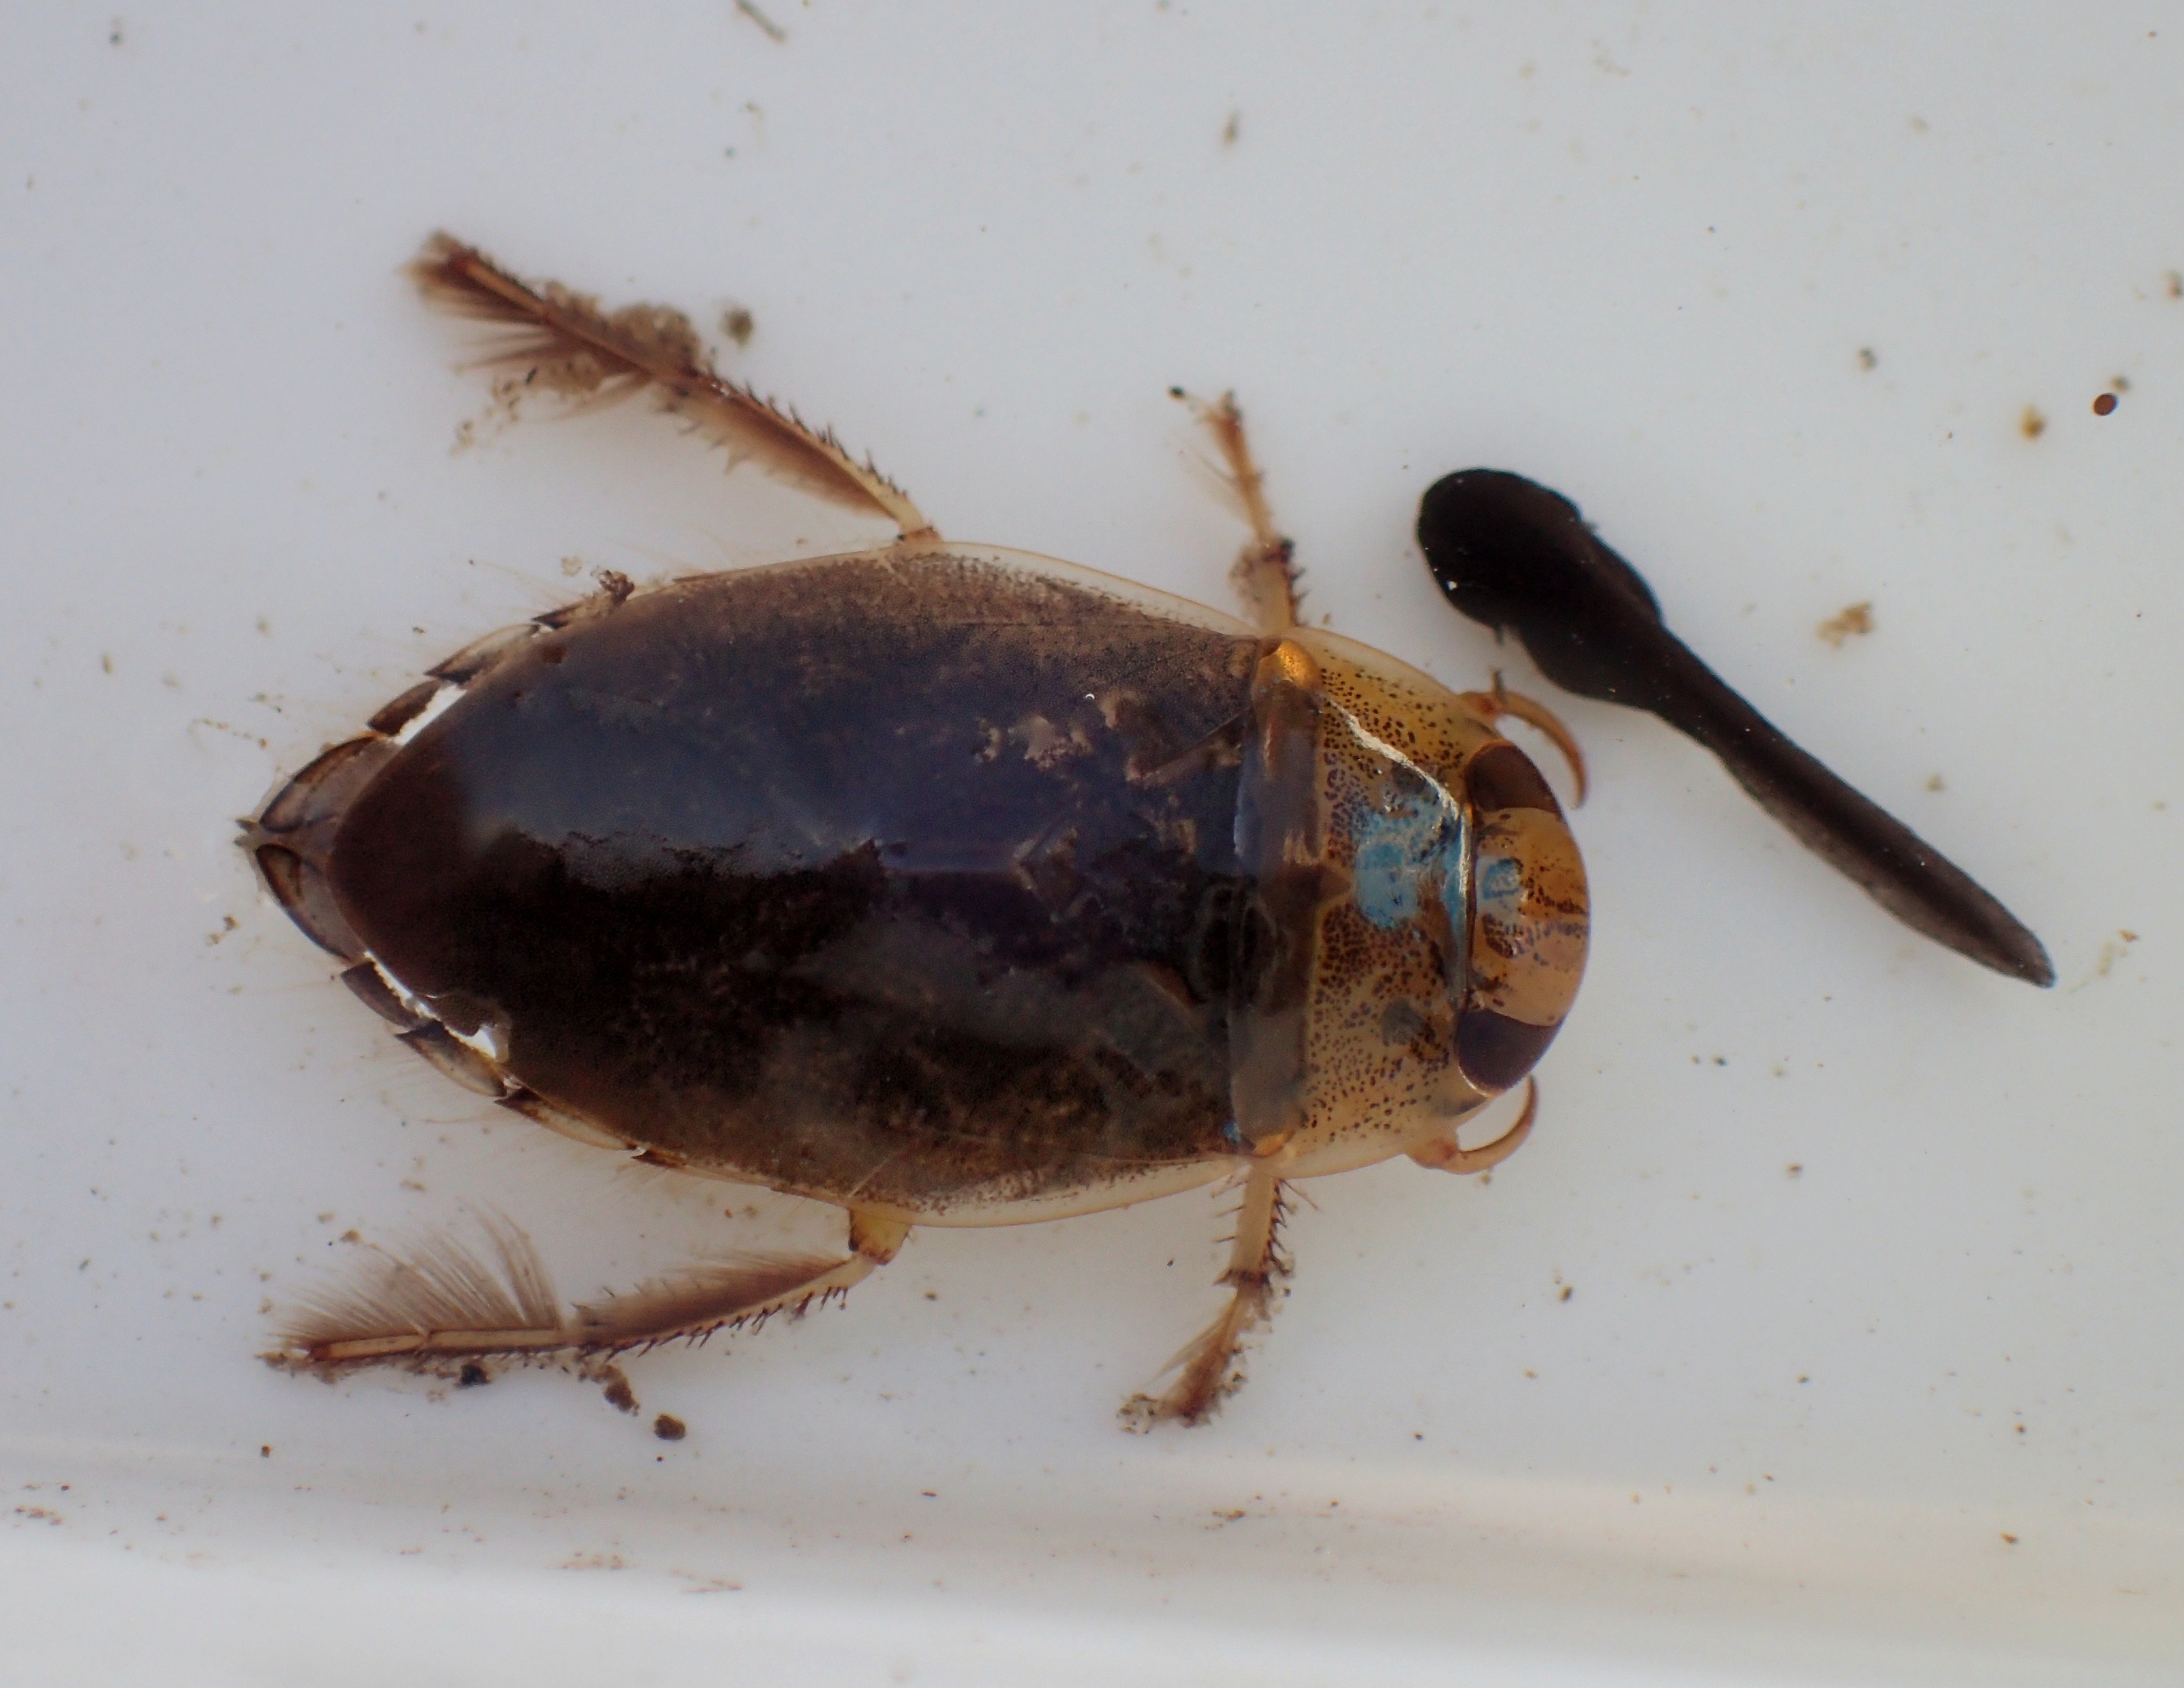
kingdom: Animalia
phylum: Arthropoda
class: Insecta
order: Hemiptera
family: Naucoridae
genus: Ilyocoris
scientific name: Ilyocoris cimicoides
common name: Vandrøver
